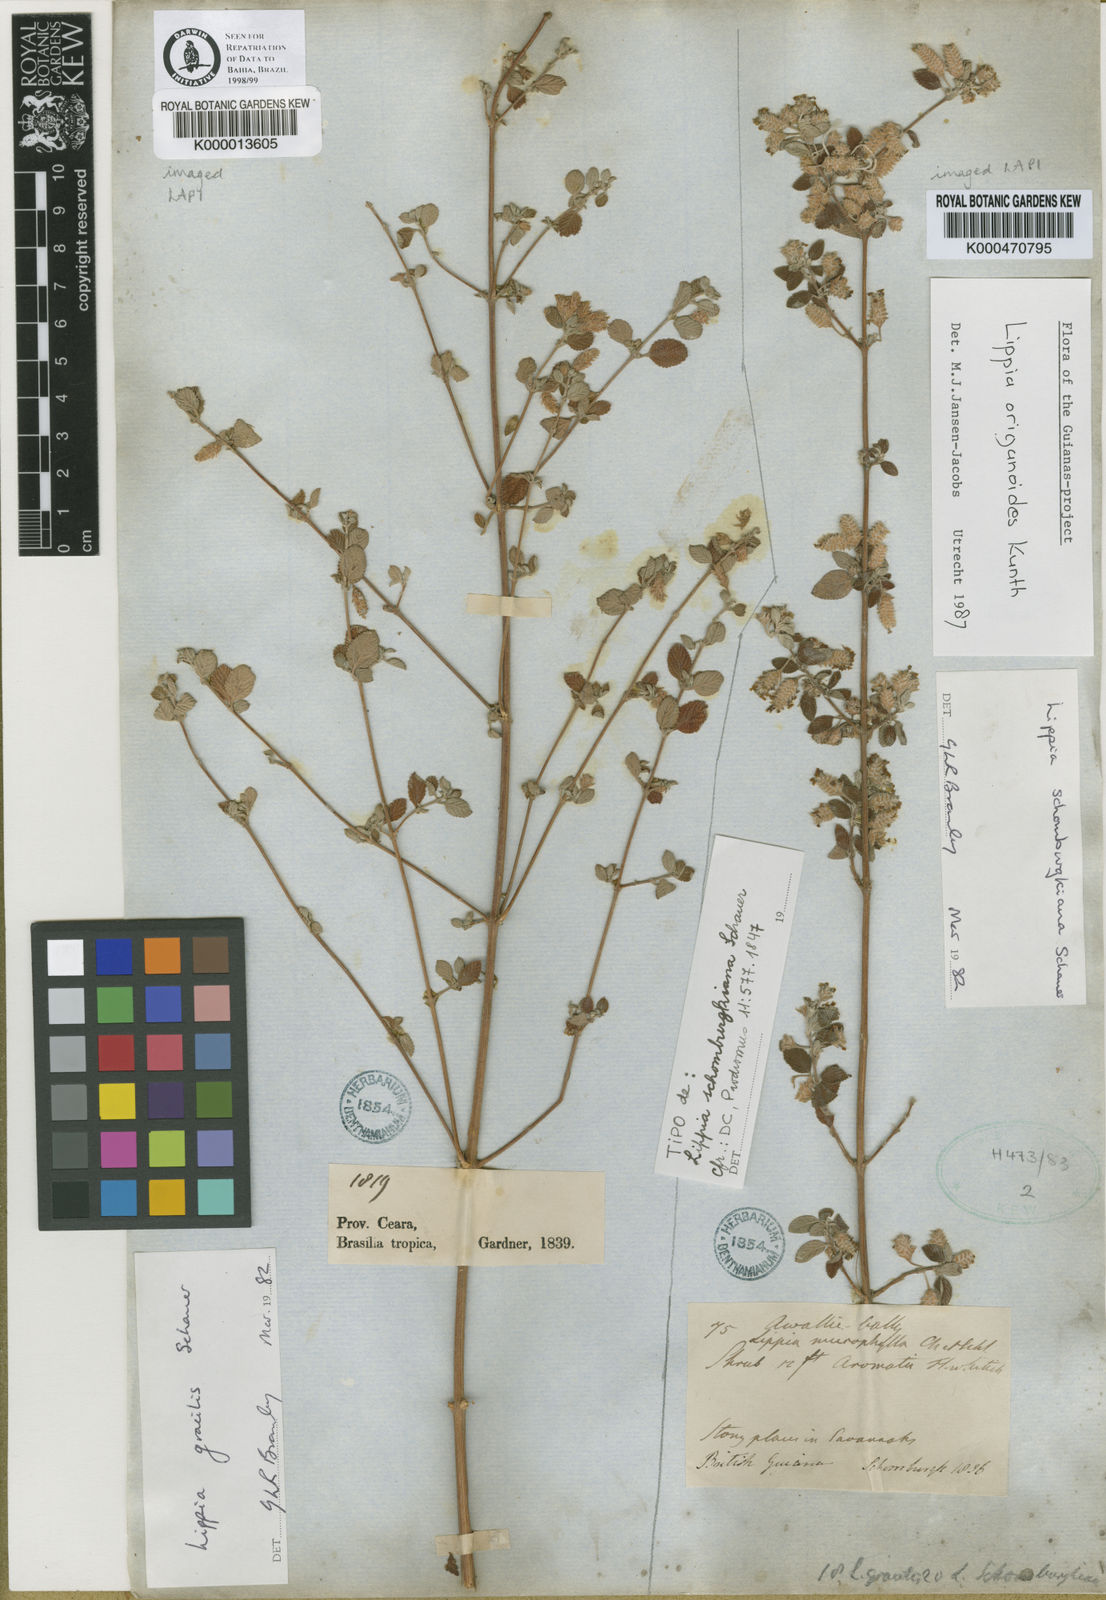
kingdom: Plantae
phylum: Tracheophyta
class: Magnoliopsida
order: Lamiales
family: Verbenaceae
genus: Lippia
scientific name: Lippia origanoides
